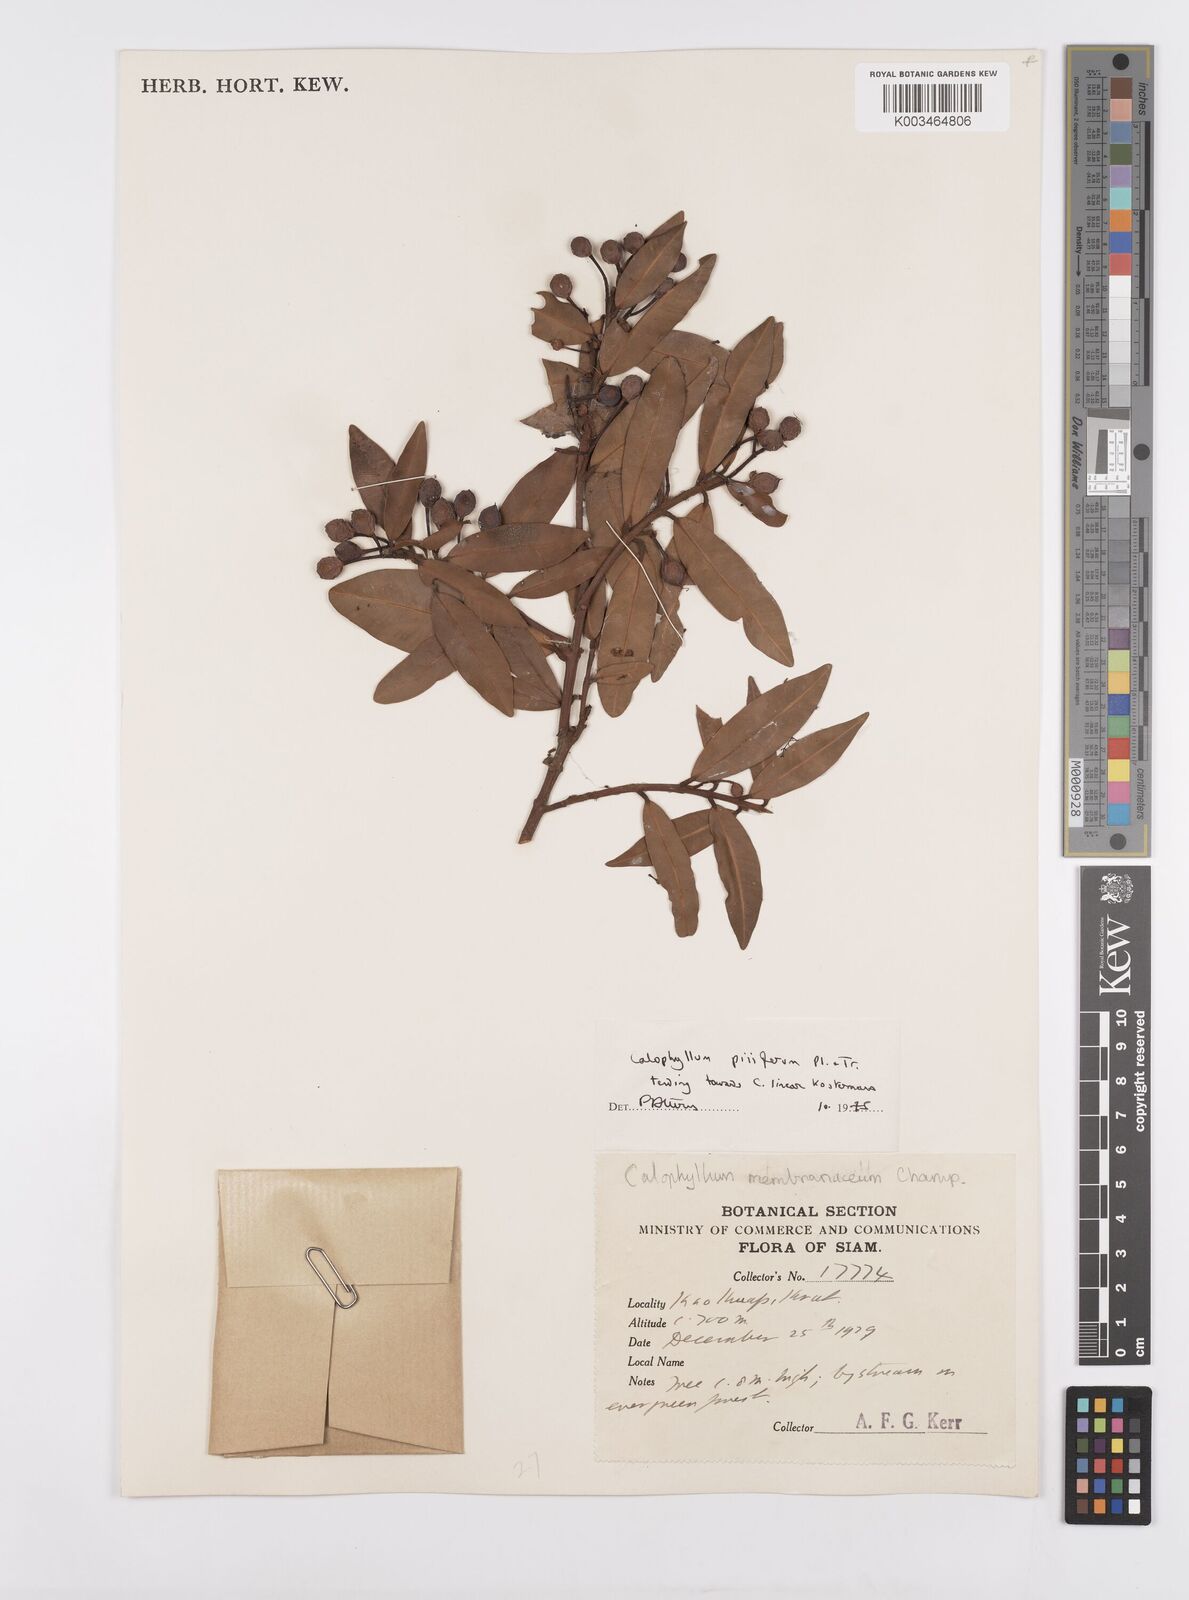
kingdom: Plantae
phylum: Tracheophyta
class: Magnoliopsida
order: Malpighiales
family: Calophyllaceae
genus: Calophyllum
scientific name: Calophyllum pisiferum
